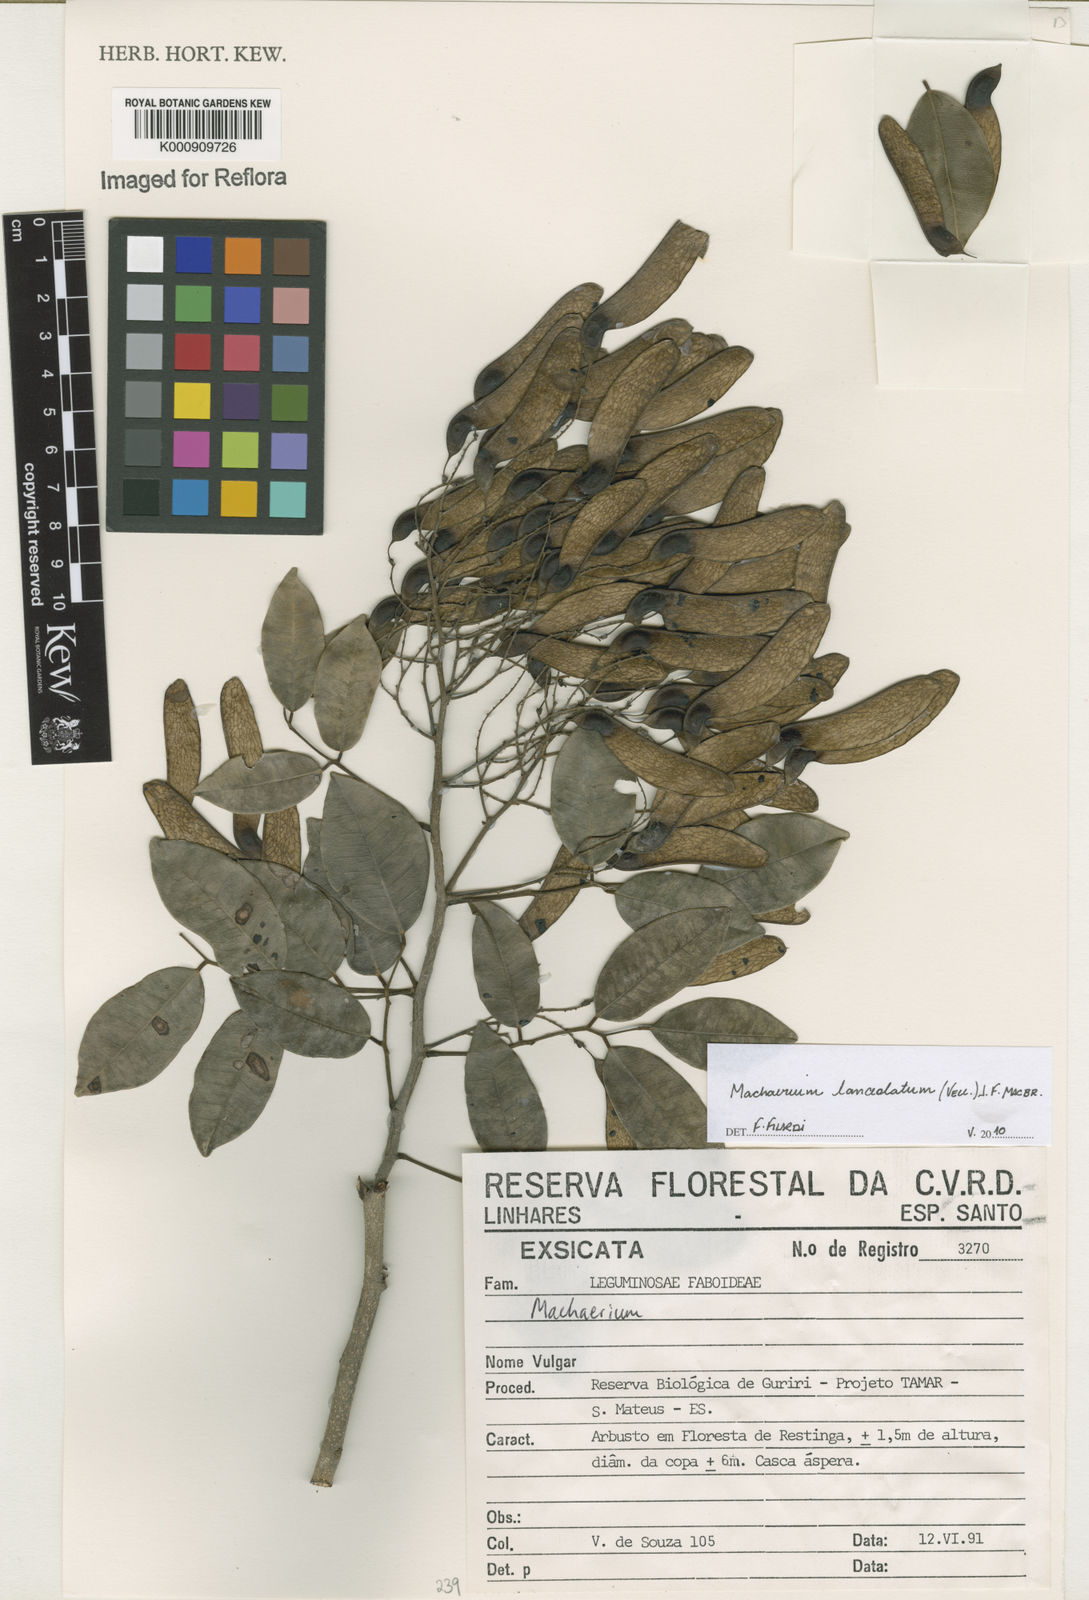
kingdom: Plantae
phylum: Tracheophyta
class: Magnoliopsida
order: Fabales
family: Fabaceae
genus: Machaerium
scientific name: Machaerium lanceolatum
